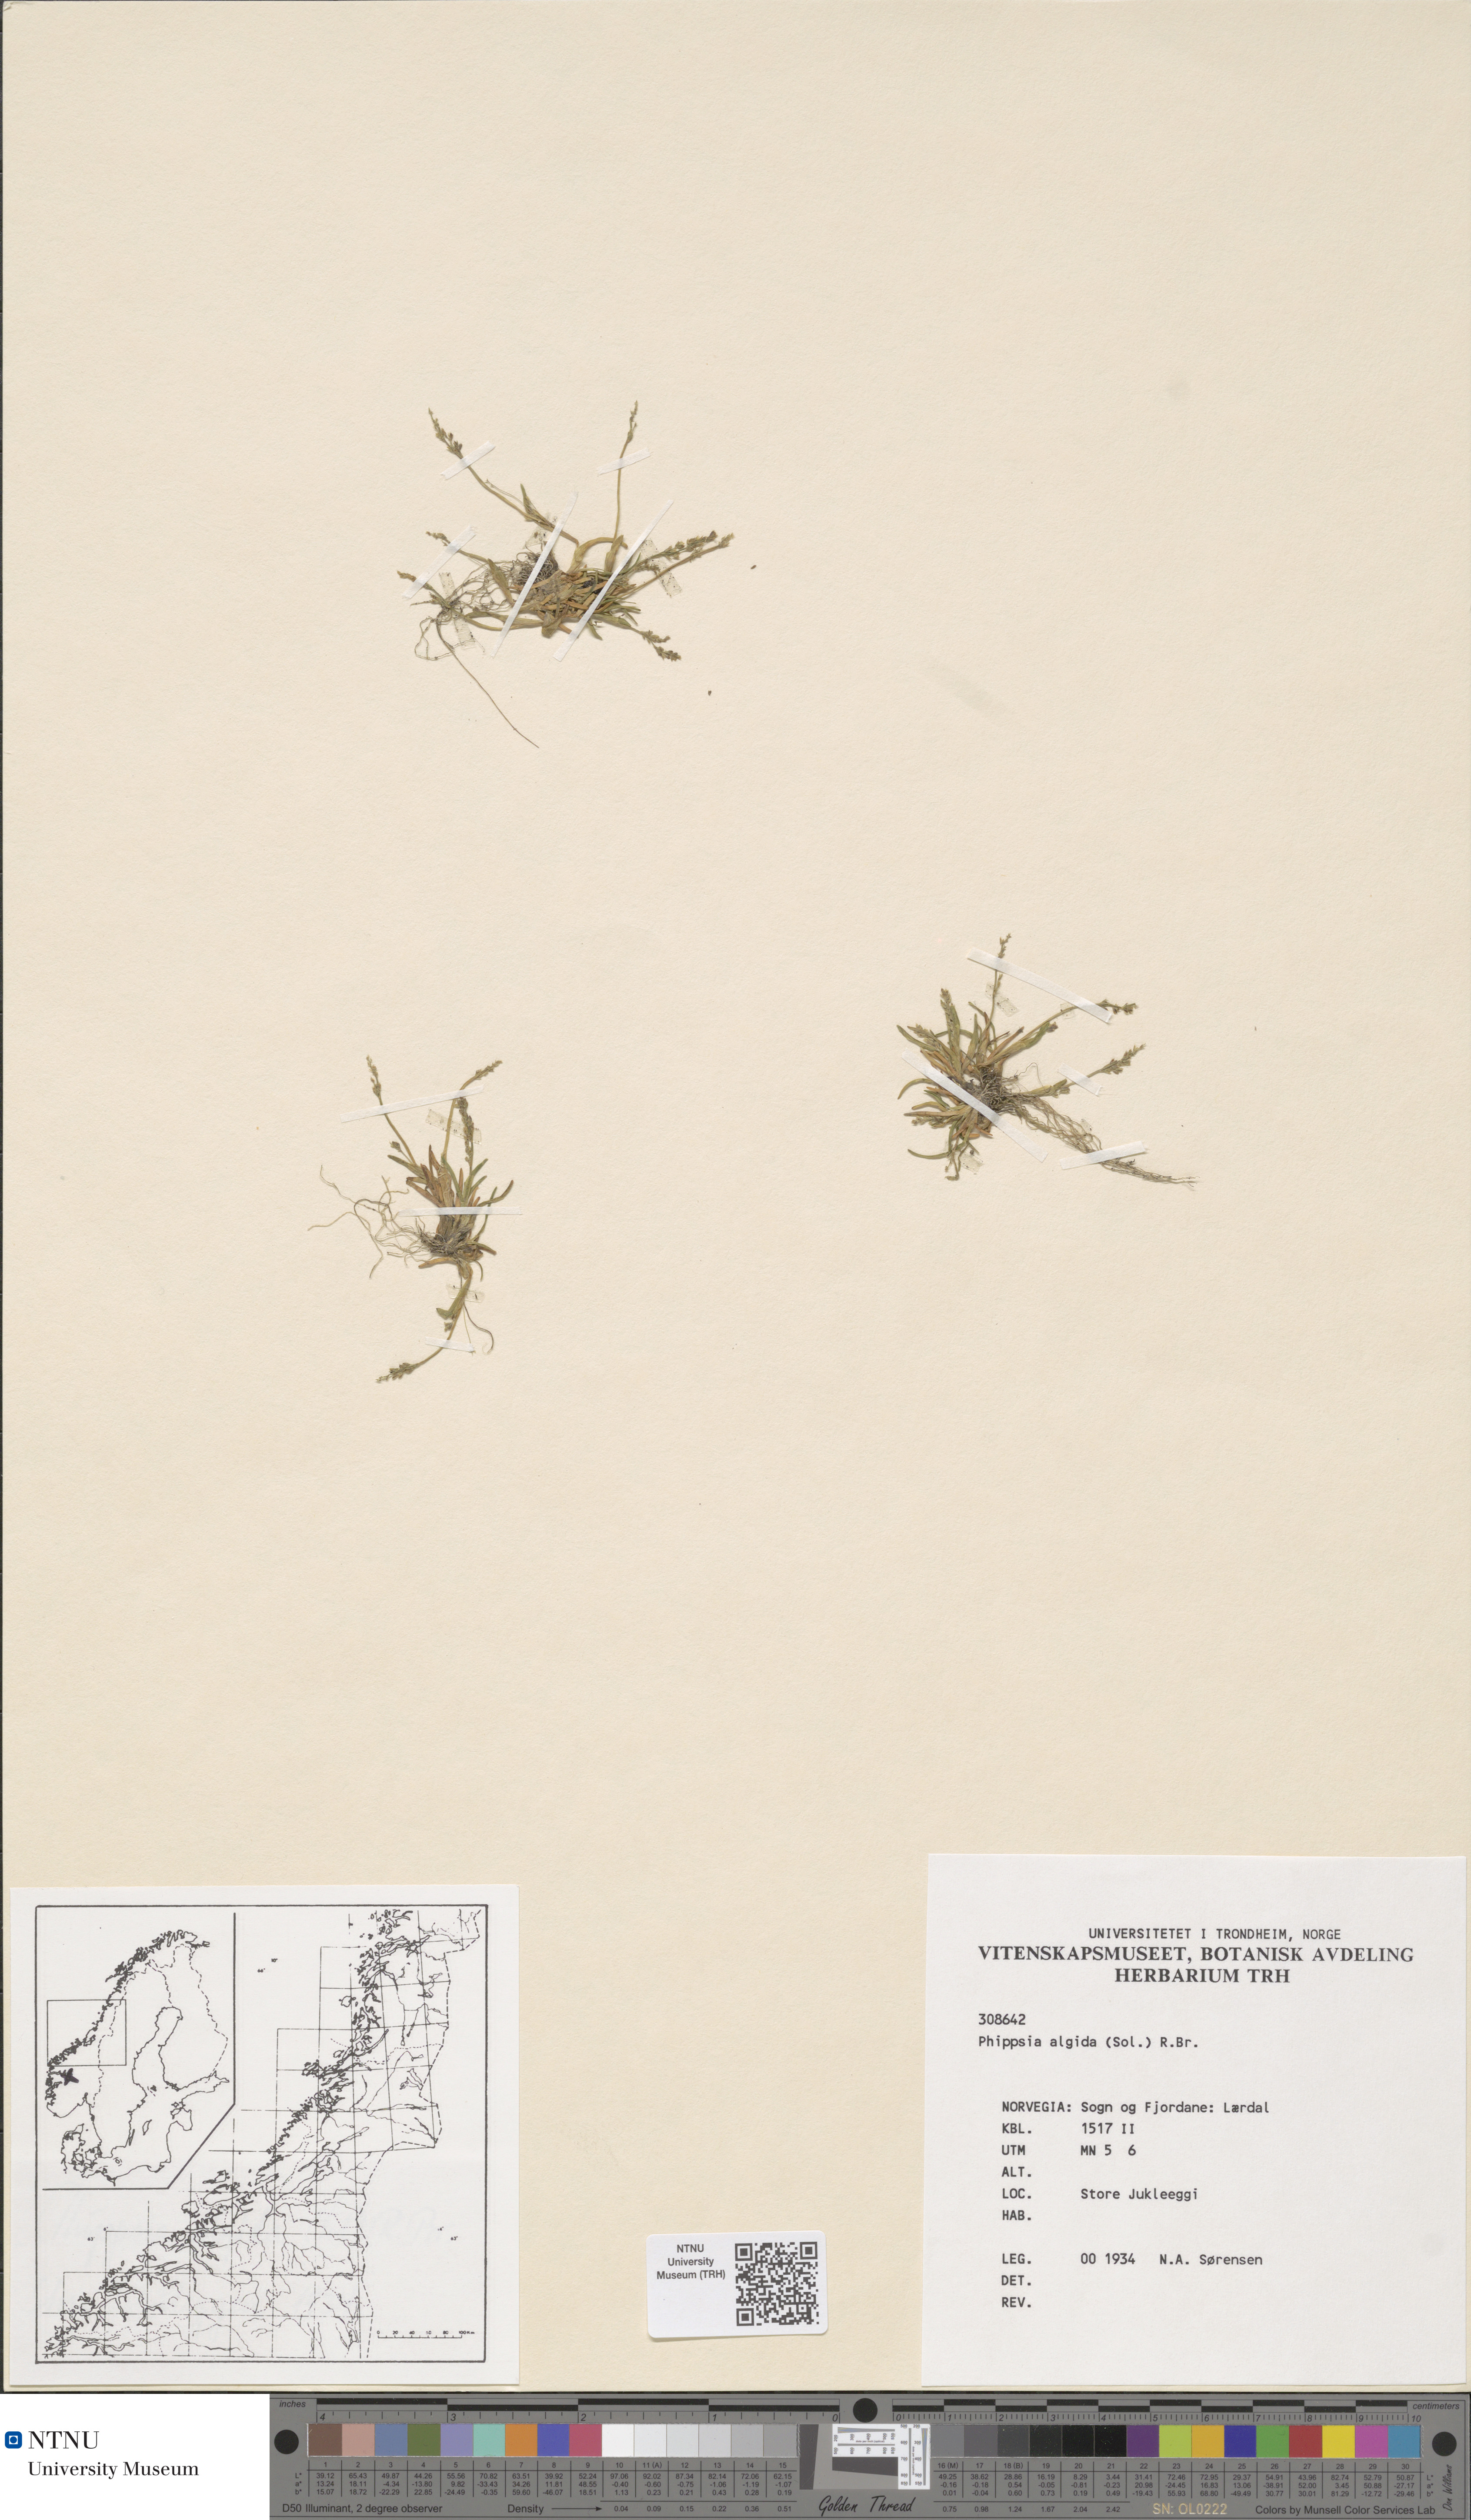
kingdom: Plantae
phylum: Tracheophyta
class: Liliopsida
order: Poales
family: Poaceae
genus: Phippsia
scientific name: Phippsia algida
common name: Ice grass
